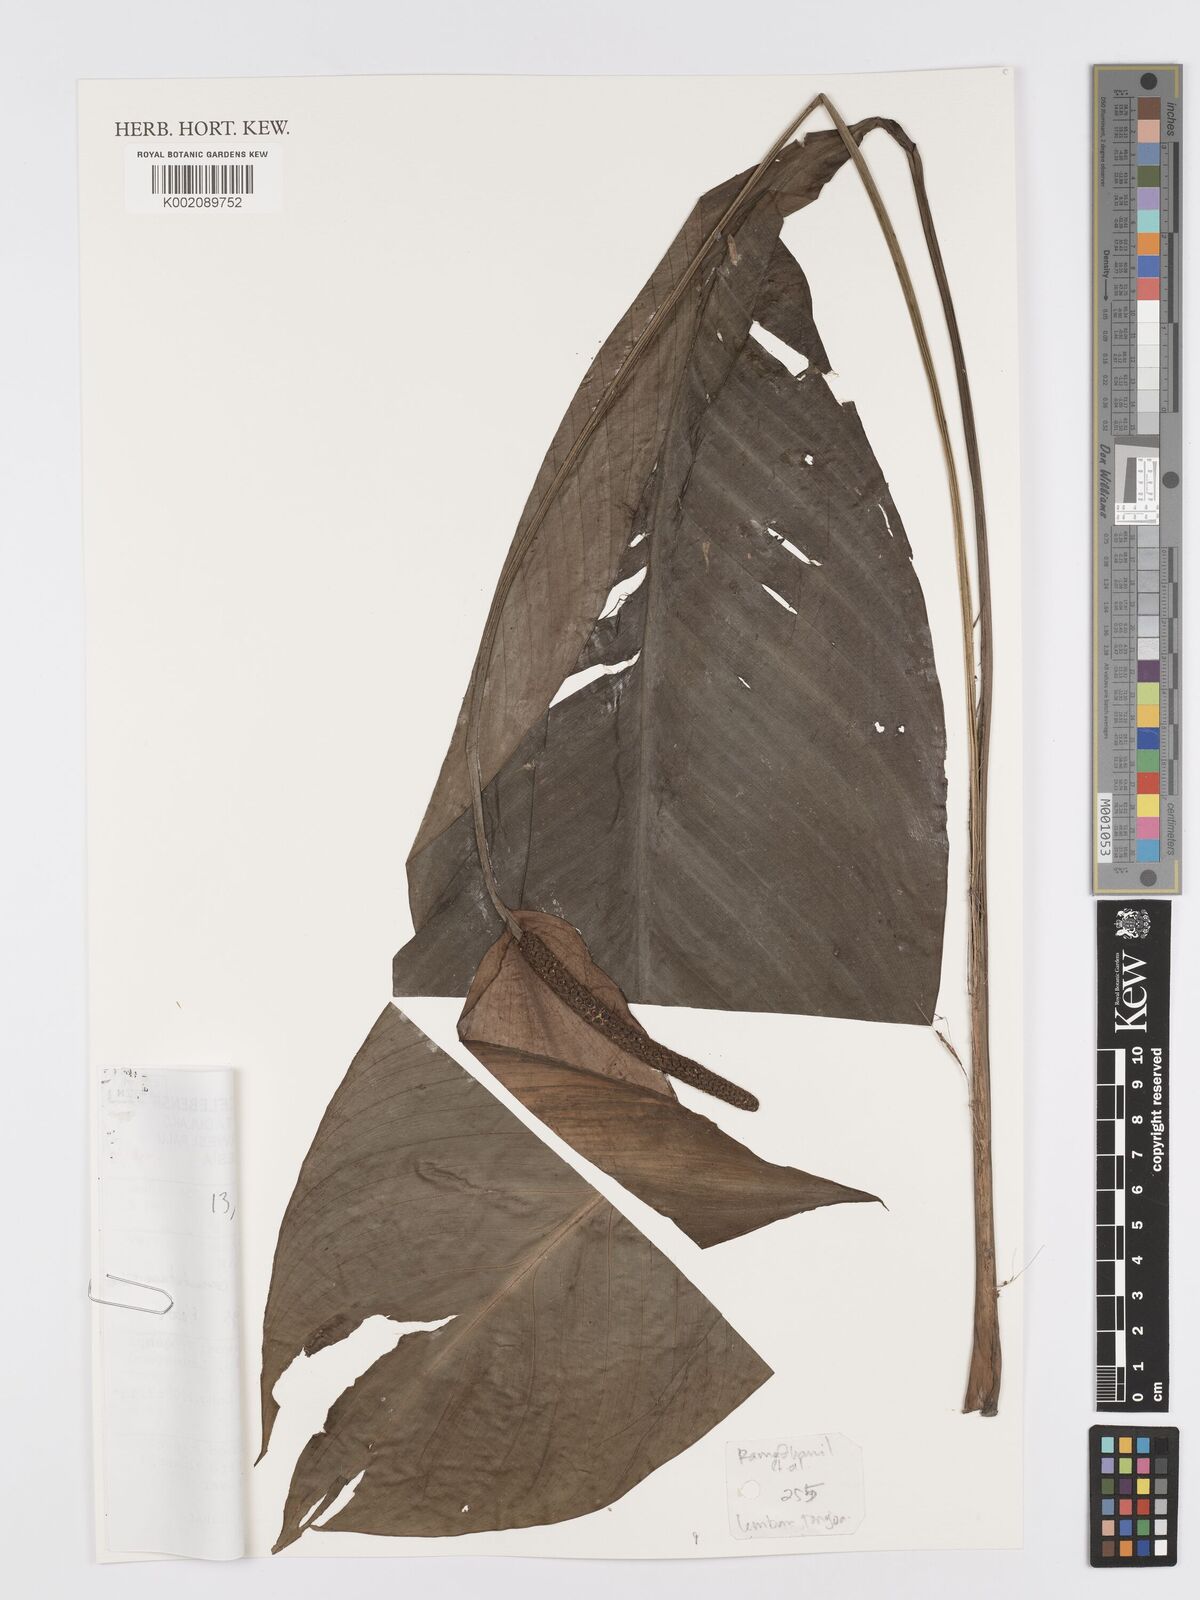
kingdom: Plantae
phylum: Tracheophyta
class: Liliopsida
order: Alismatales
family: Araceae
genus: Spathiphyllum
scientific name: Spathiphyllum commutatum
